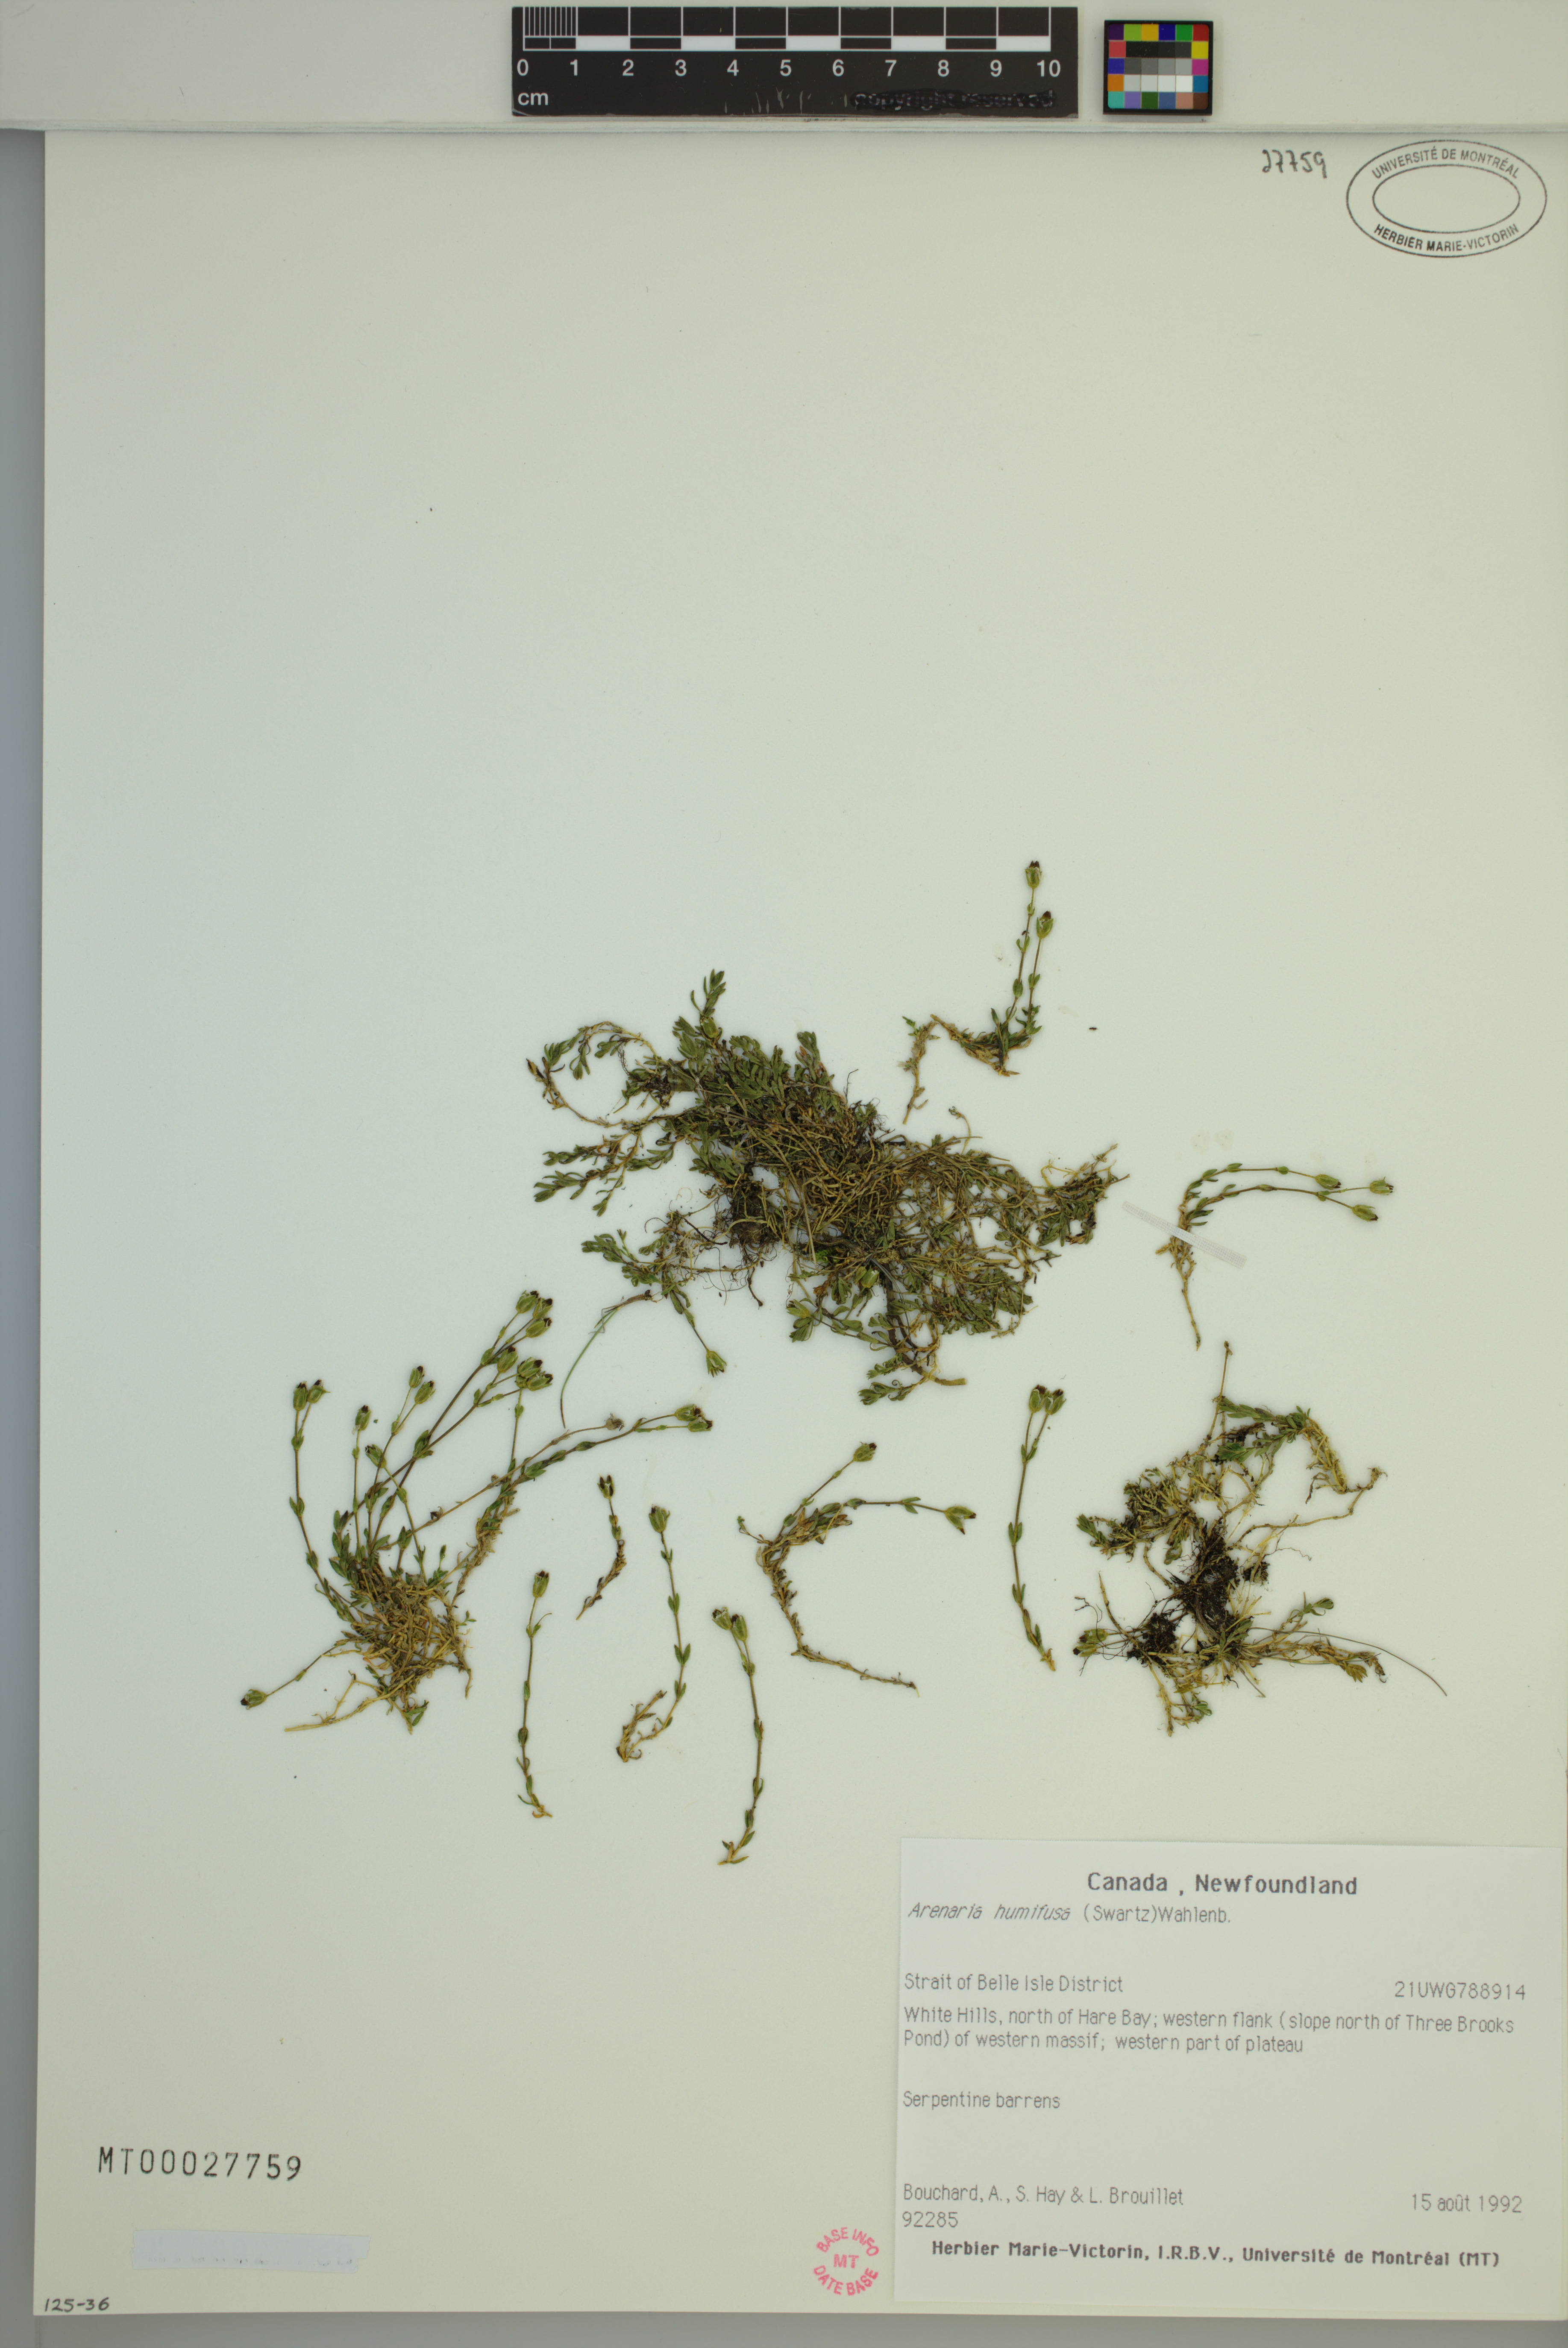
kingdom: Plantae
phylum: Tracheophyta
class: Magnoliopsida
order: Caryophyllales
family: Caryophyllaceae
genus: Arenaria
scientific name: Arenaria humifusa
